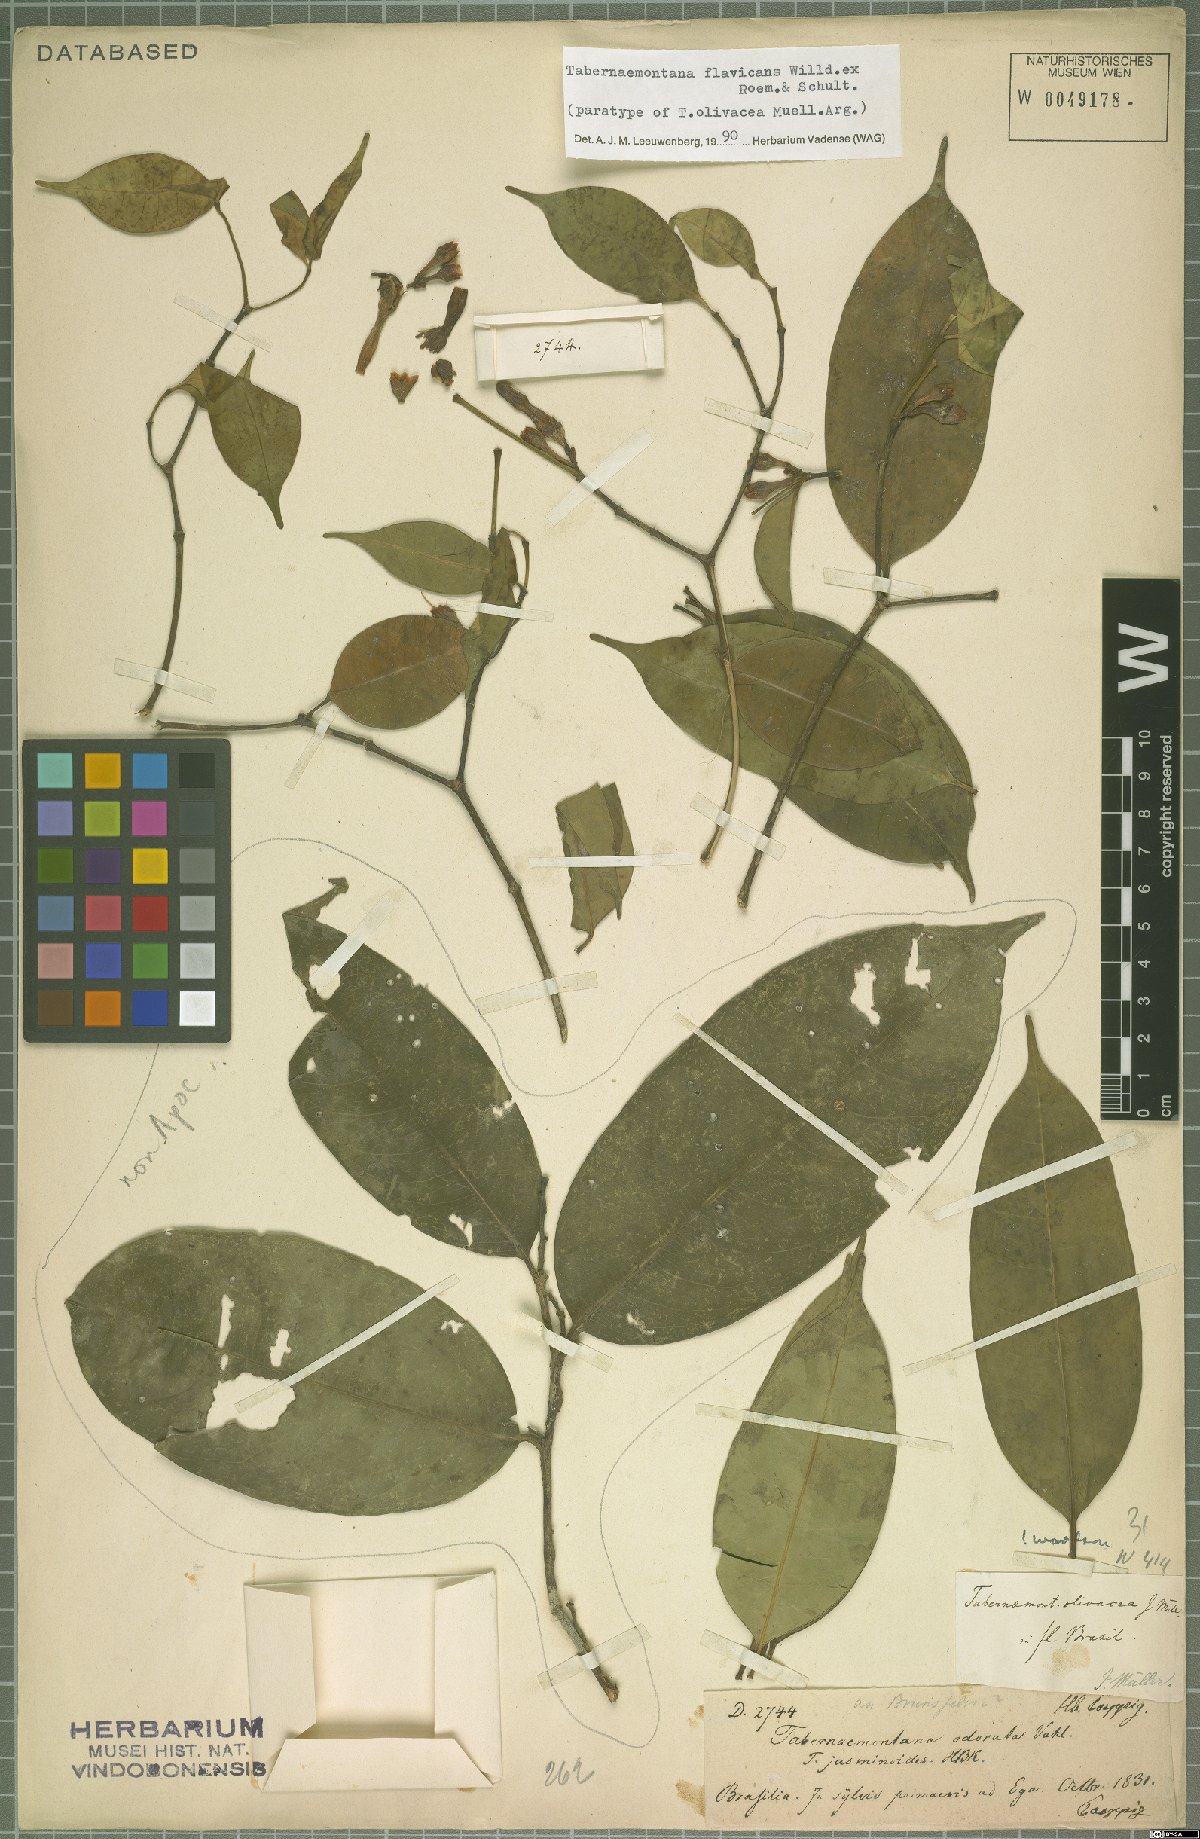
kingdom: Plantae
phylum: Tracheophyta
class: Magnoliopsida
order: Gentianales
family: Apocynaceae
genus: Tabernaemontana
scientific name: Tabernaemontana flavicans
